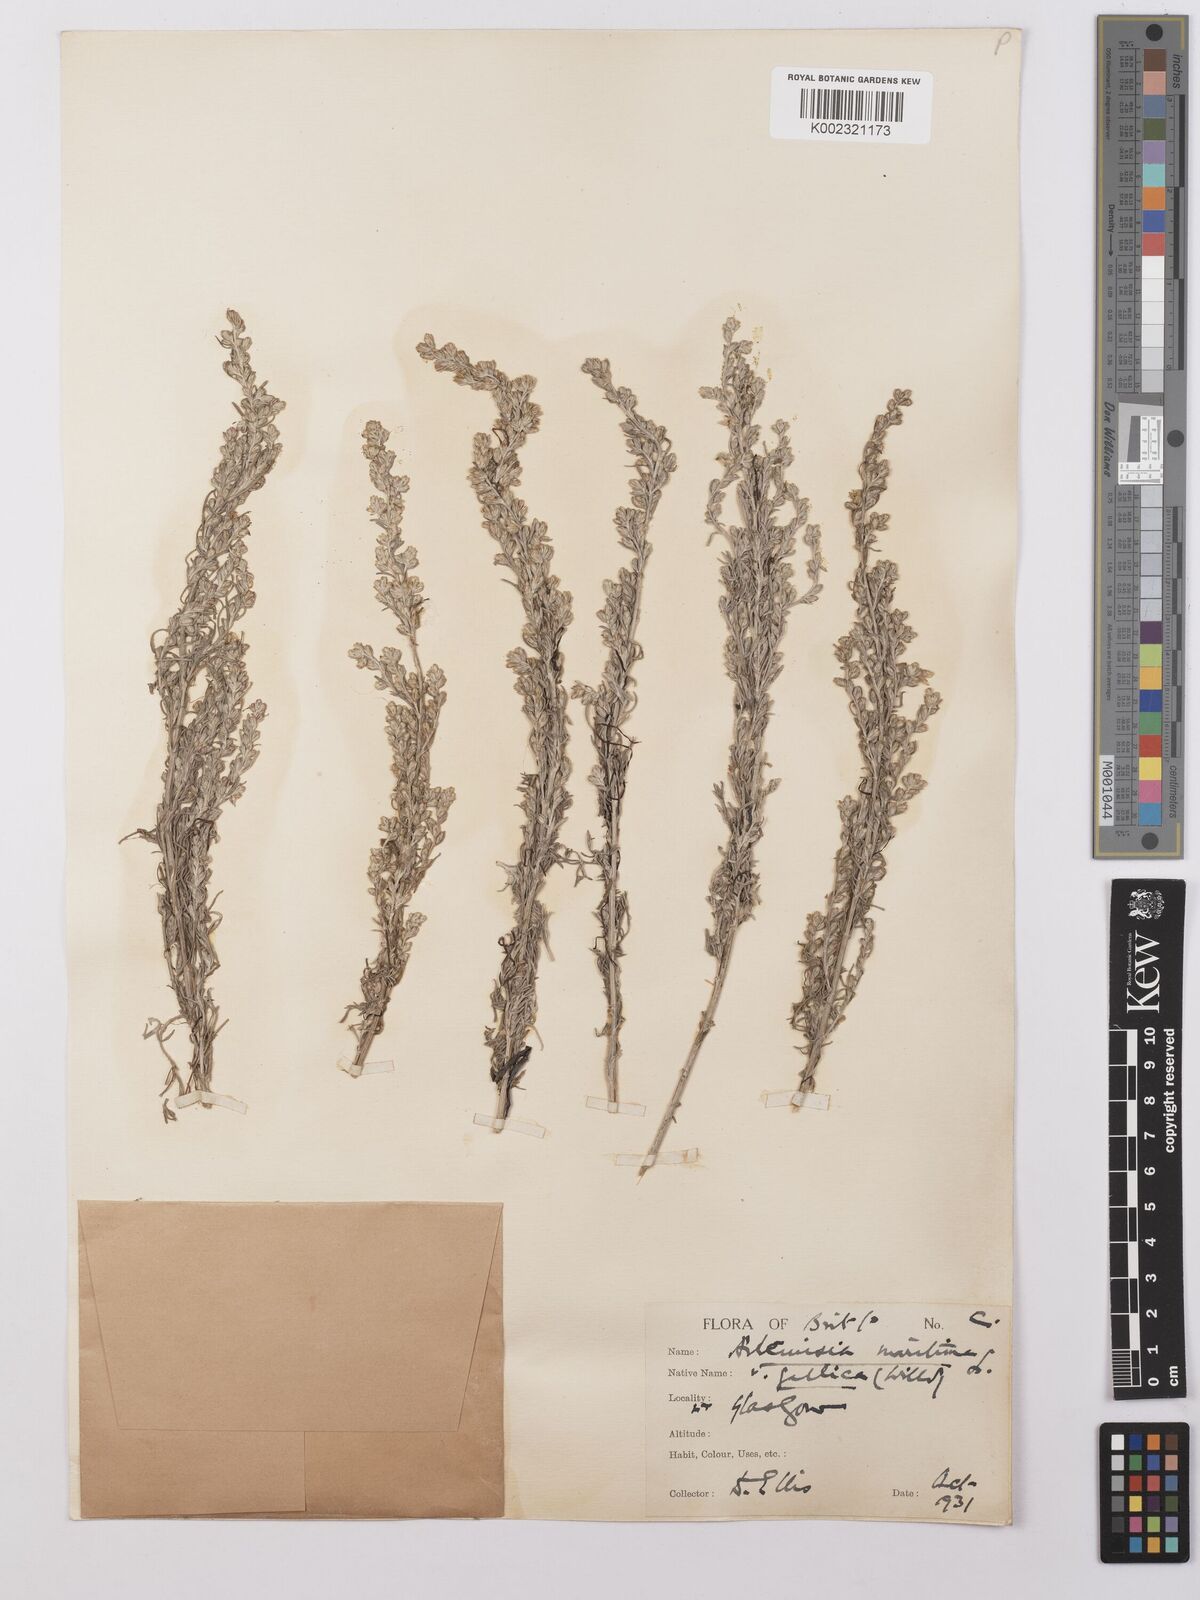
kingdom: Plantae
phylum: Tracheophyta
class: Magnoliopsida
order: Asterales
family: Asteraceae
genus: Artemisia
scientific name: Artemisia maritima
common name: Wormseed
